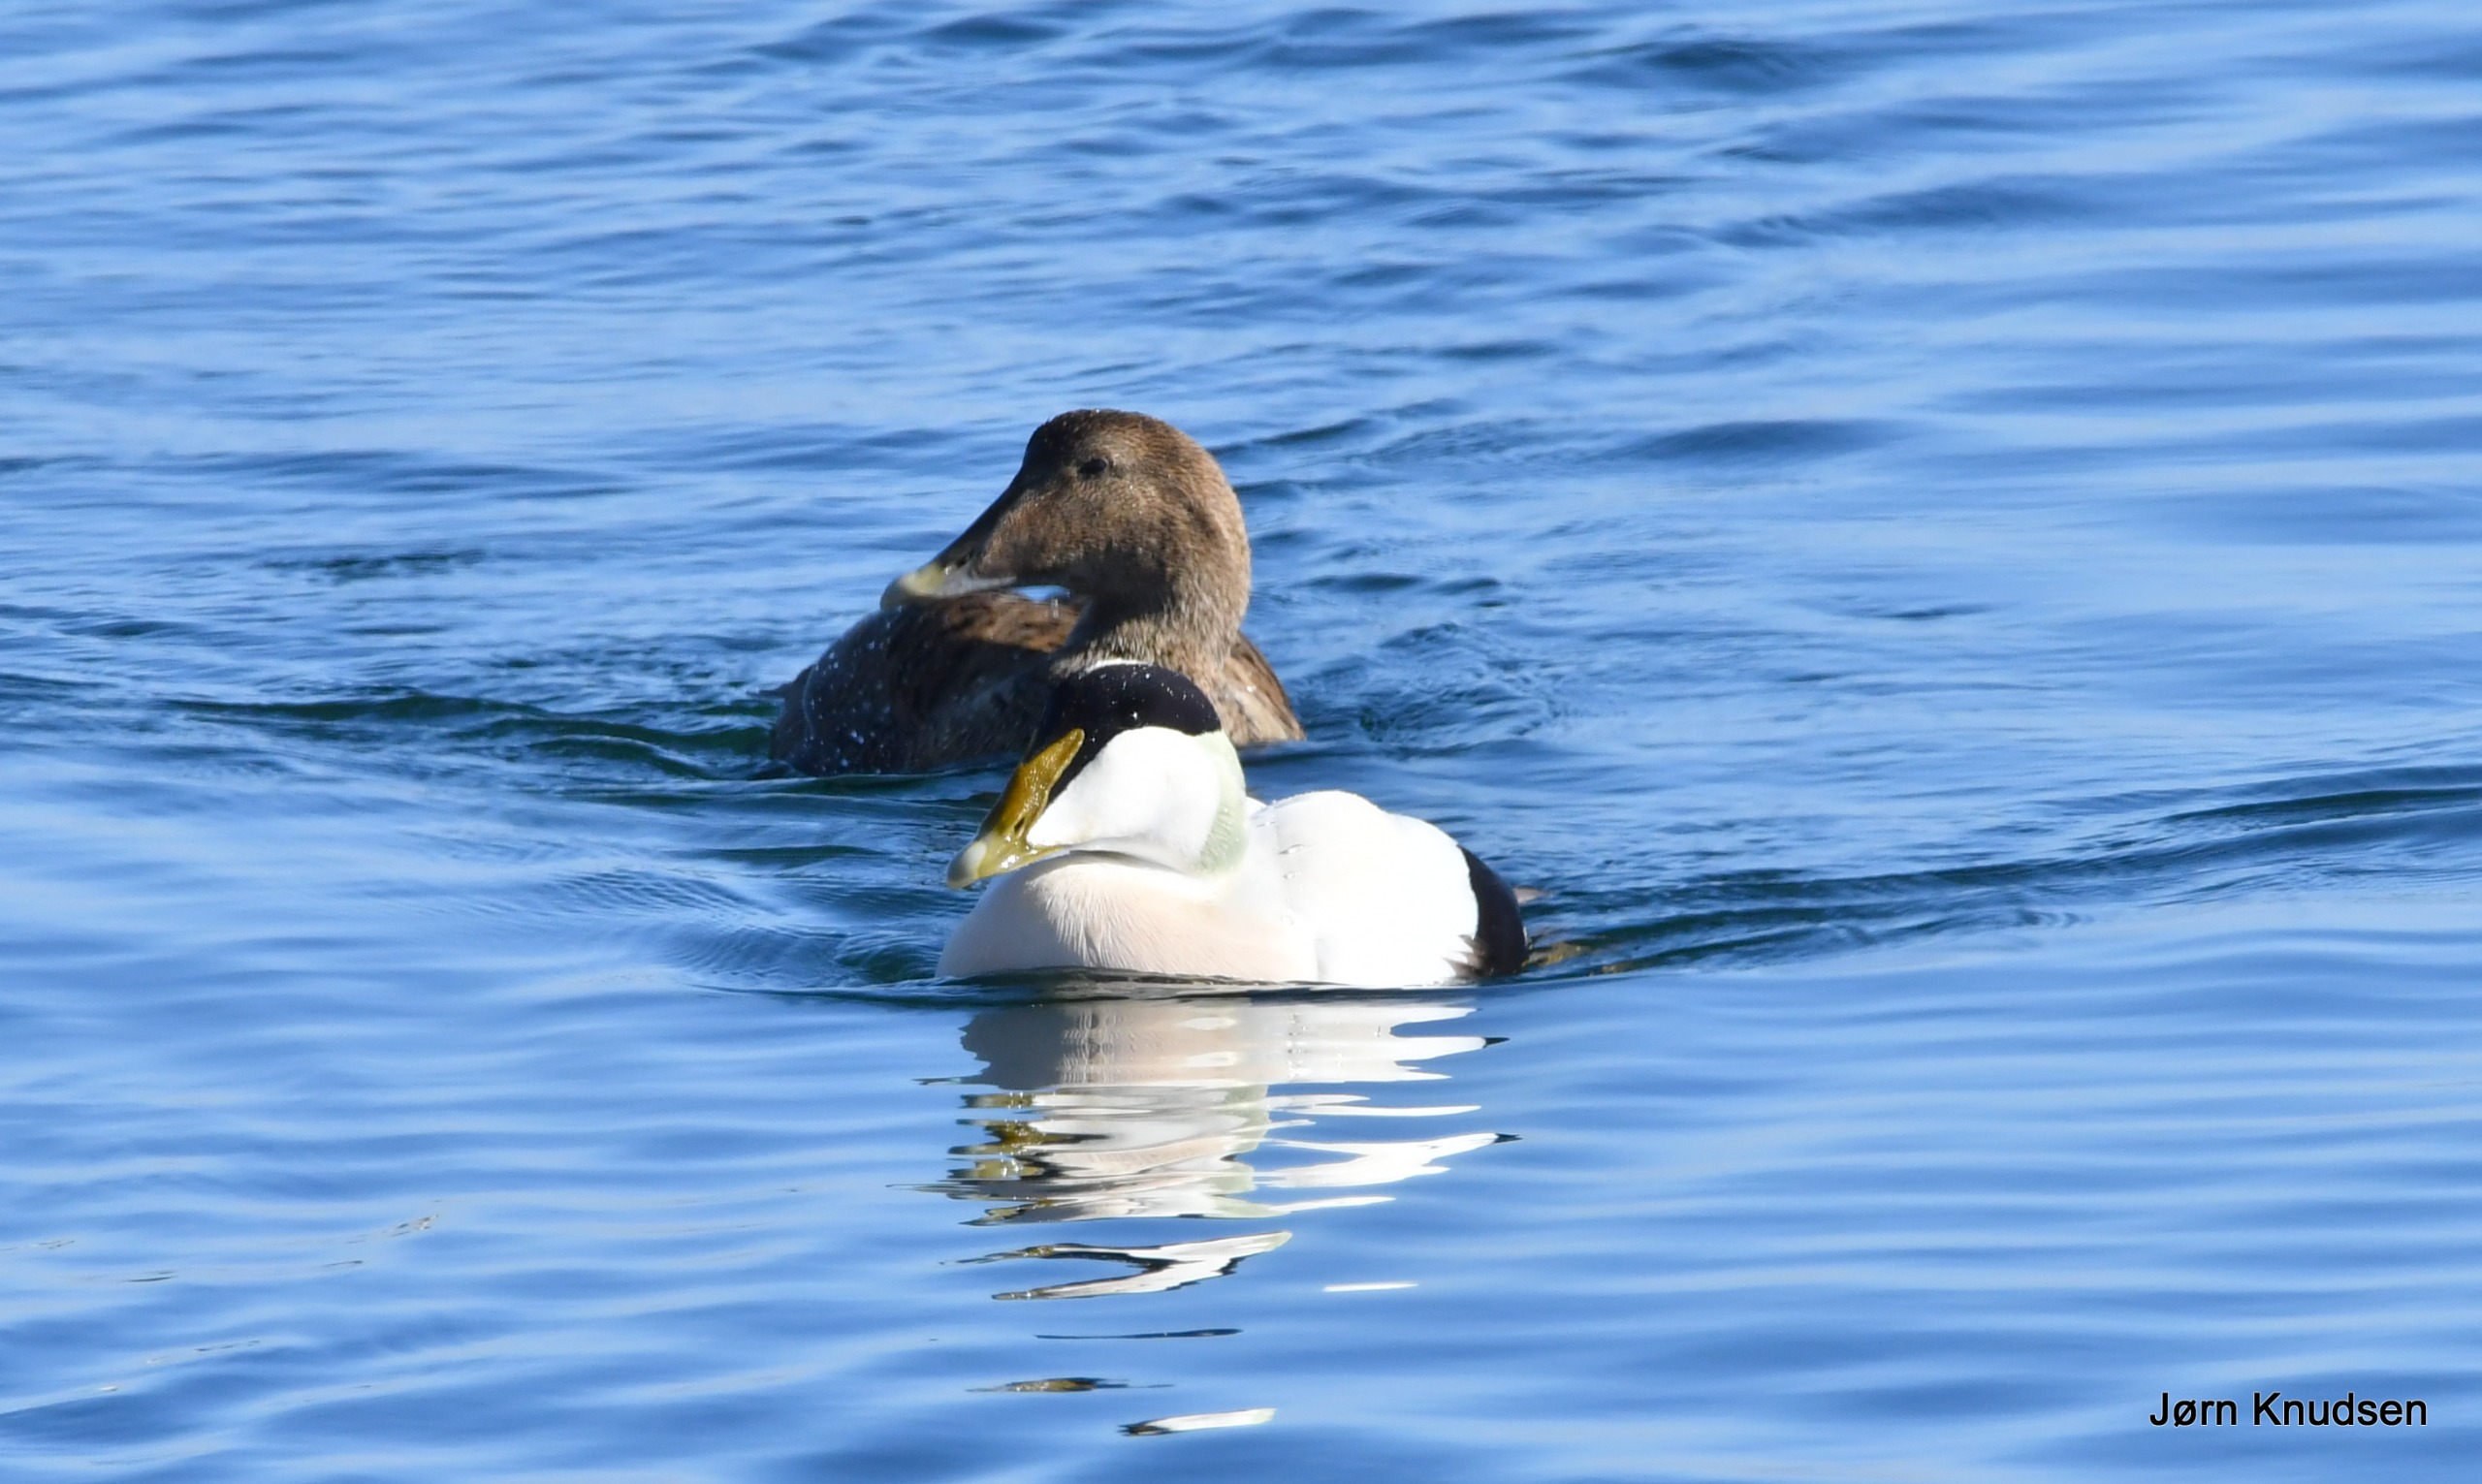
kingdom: Animalia
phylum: Chordata
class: Aves
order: Anseriformes
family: Anatidae
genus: Somateria
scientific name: Somateria mollissima
